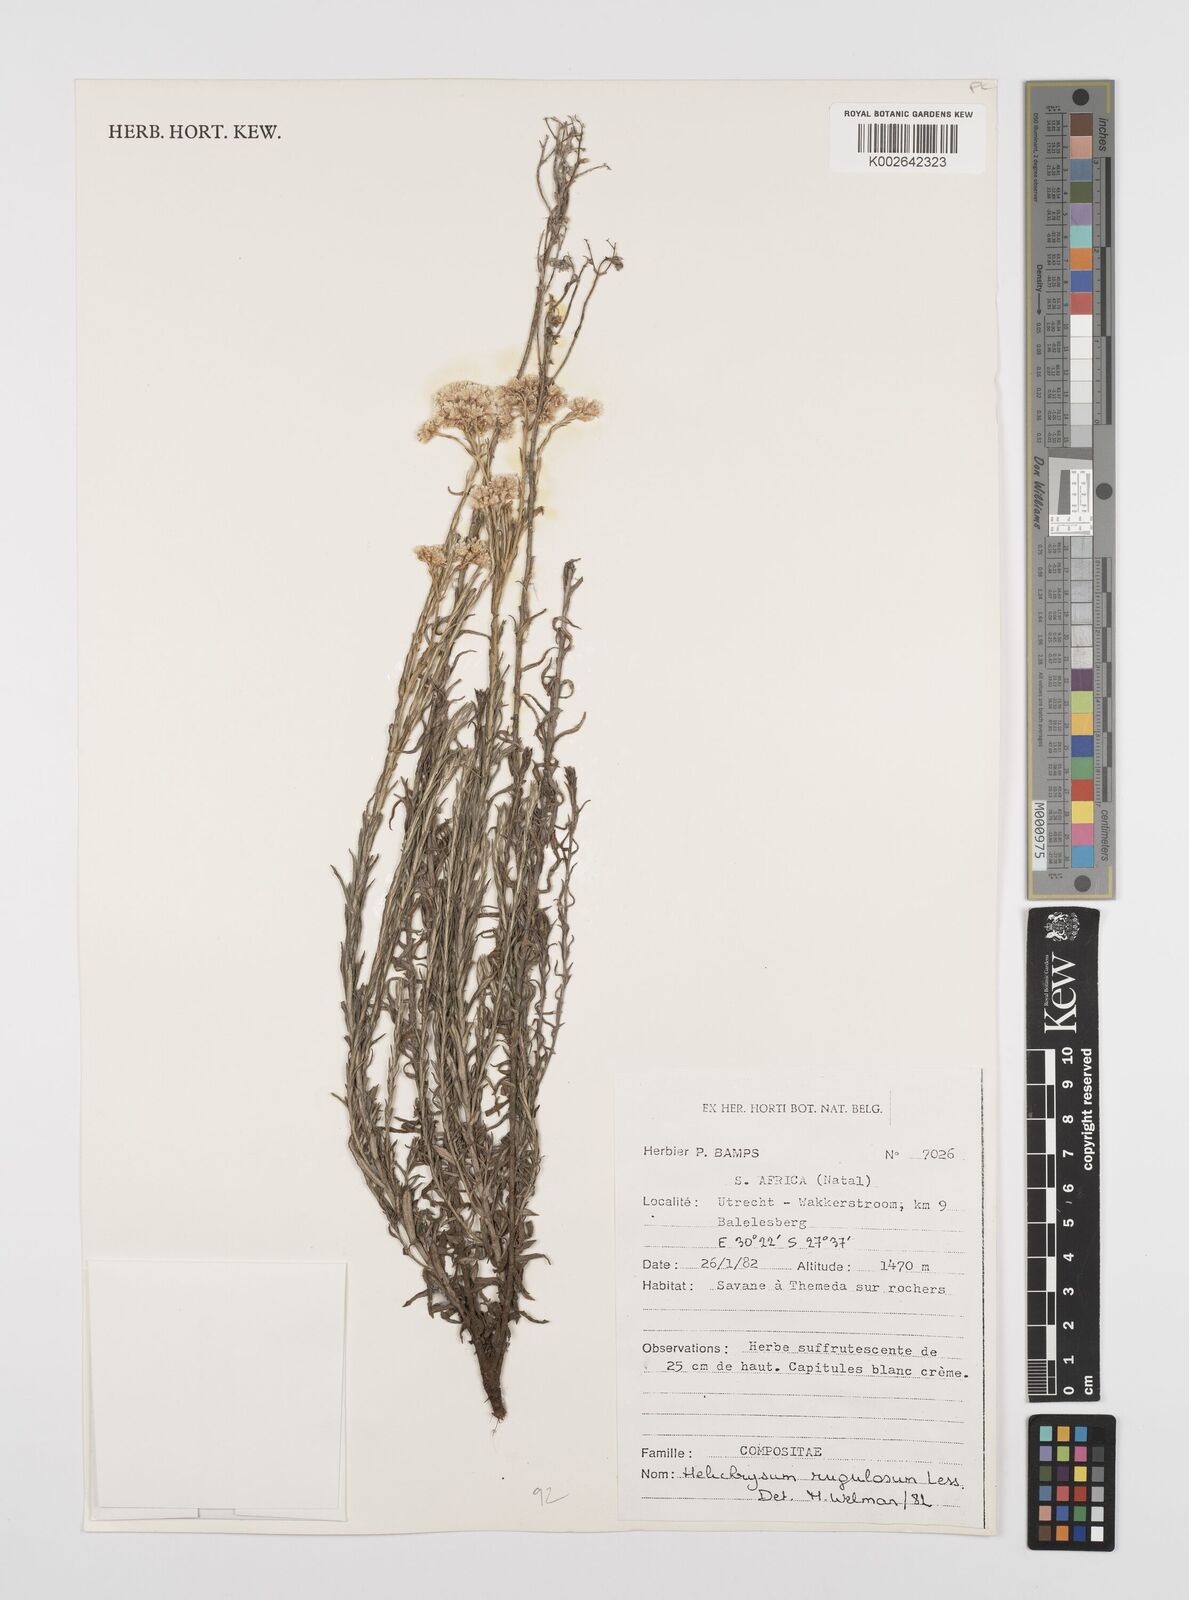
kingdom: Plantae
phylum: Tracheophyta
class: Magnoliopsida
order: Asterales
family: Asteraceae
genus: Helichrysum
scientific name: Helichrysum rugulosum
